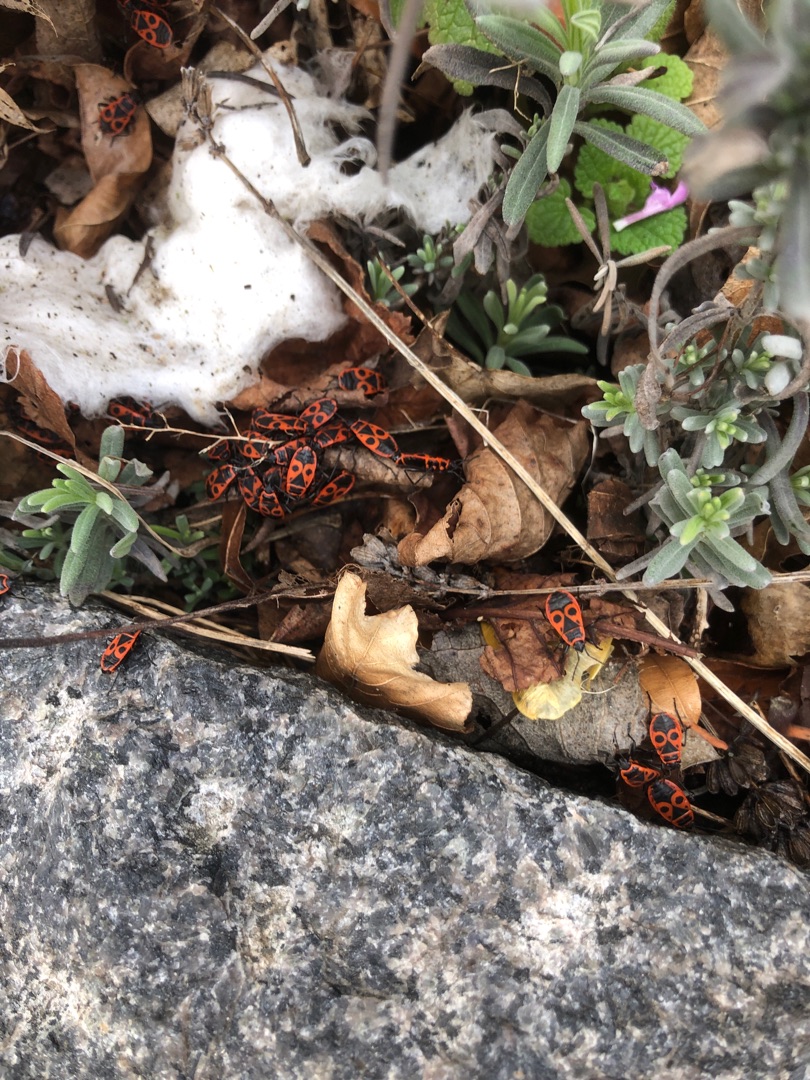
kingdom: Animalia
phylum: Arthropoda
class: Insecta
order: Hemiptera
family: Pyrrhocoridae
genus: Pyrrhocoris
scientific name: Pyrrhocoris apterus
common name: Ildtæge
